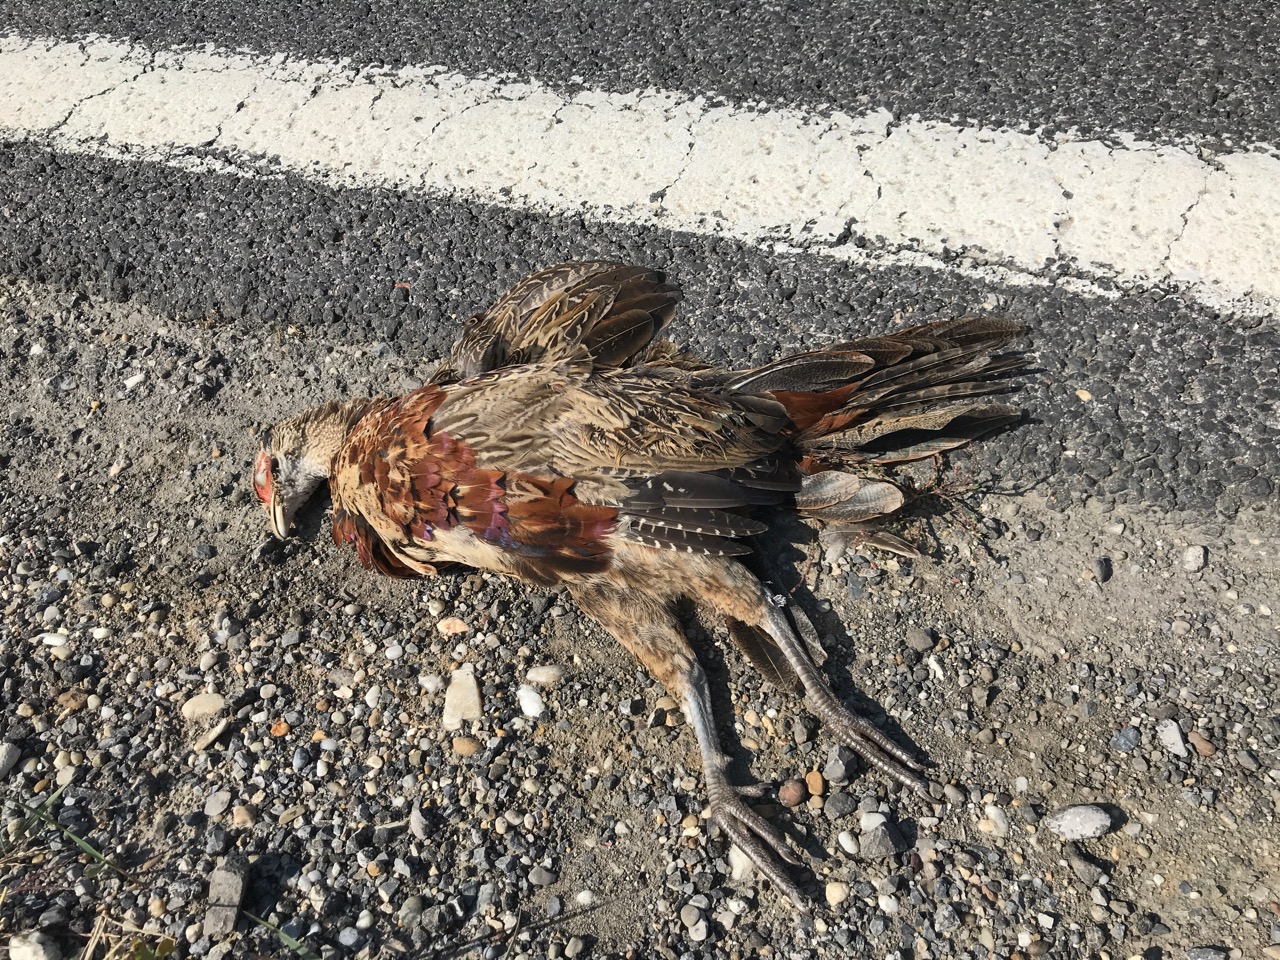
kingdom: Animalia
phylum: Chordata
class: Aves
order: Galliformes
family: Phasianidae
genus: Phasianus
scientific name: Phasianus colchicus
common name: Common pheasant
